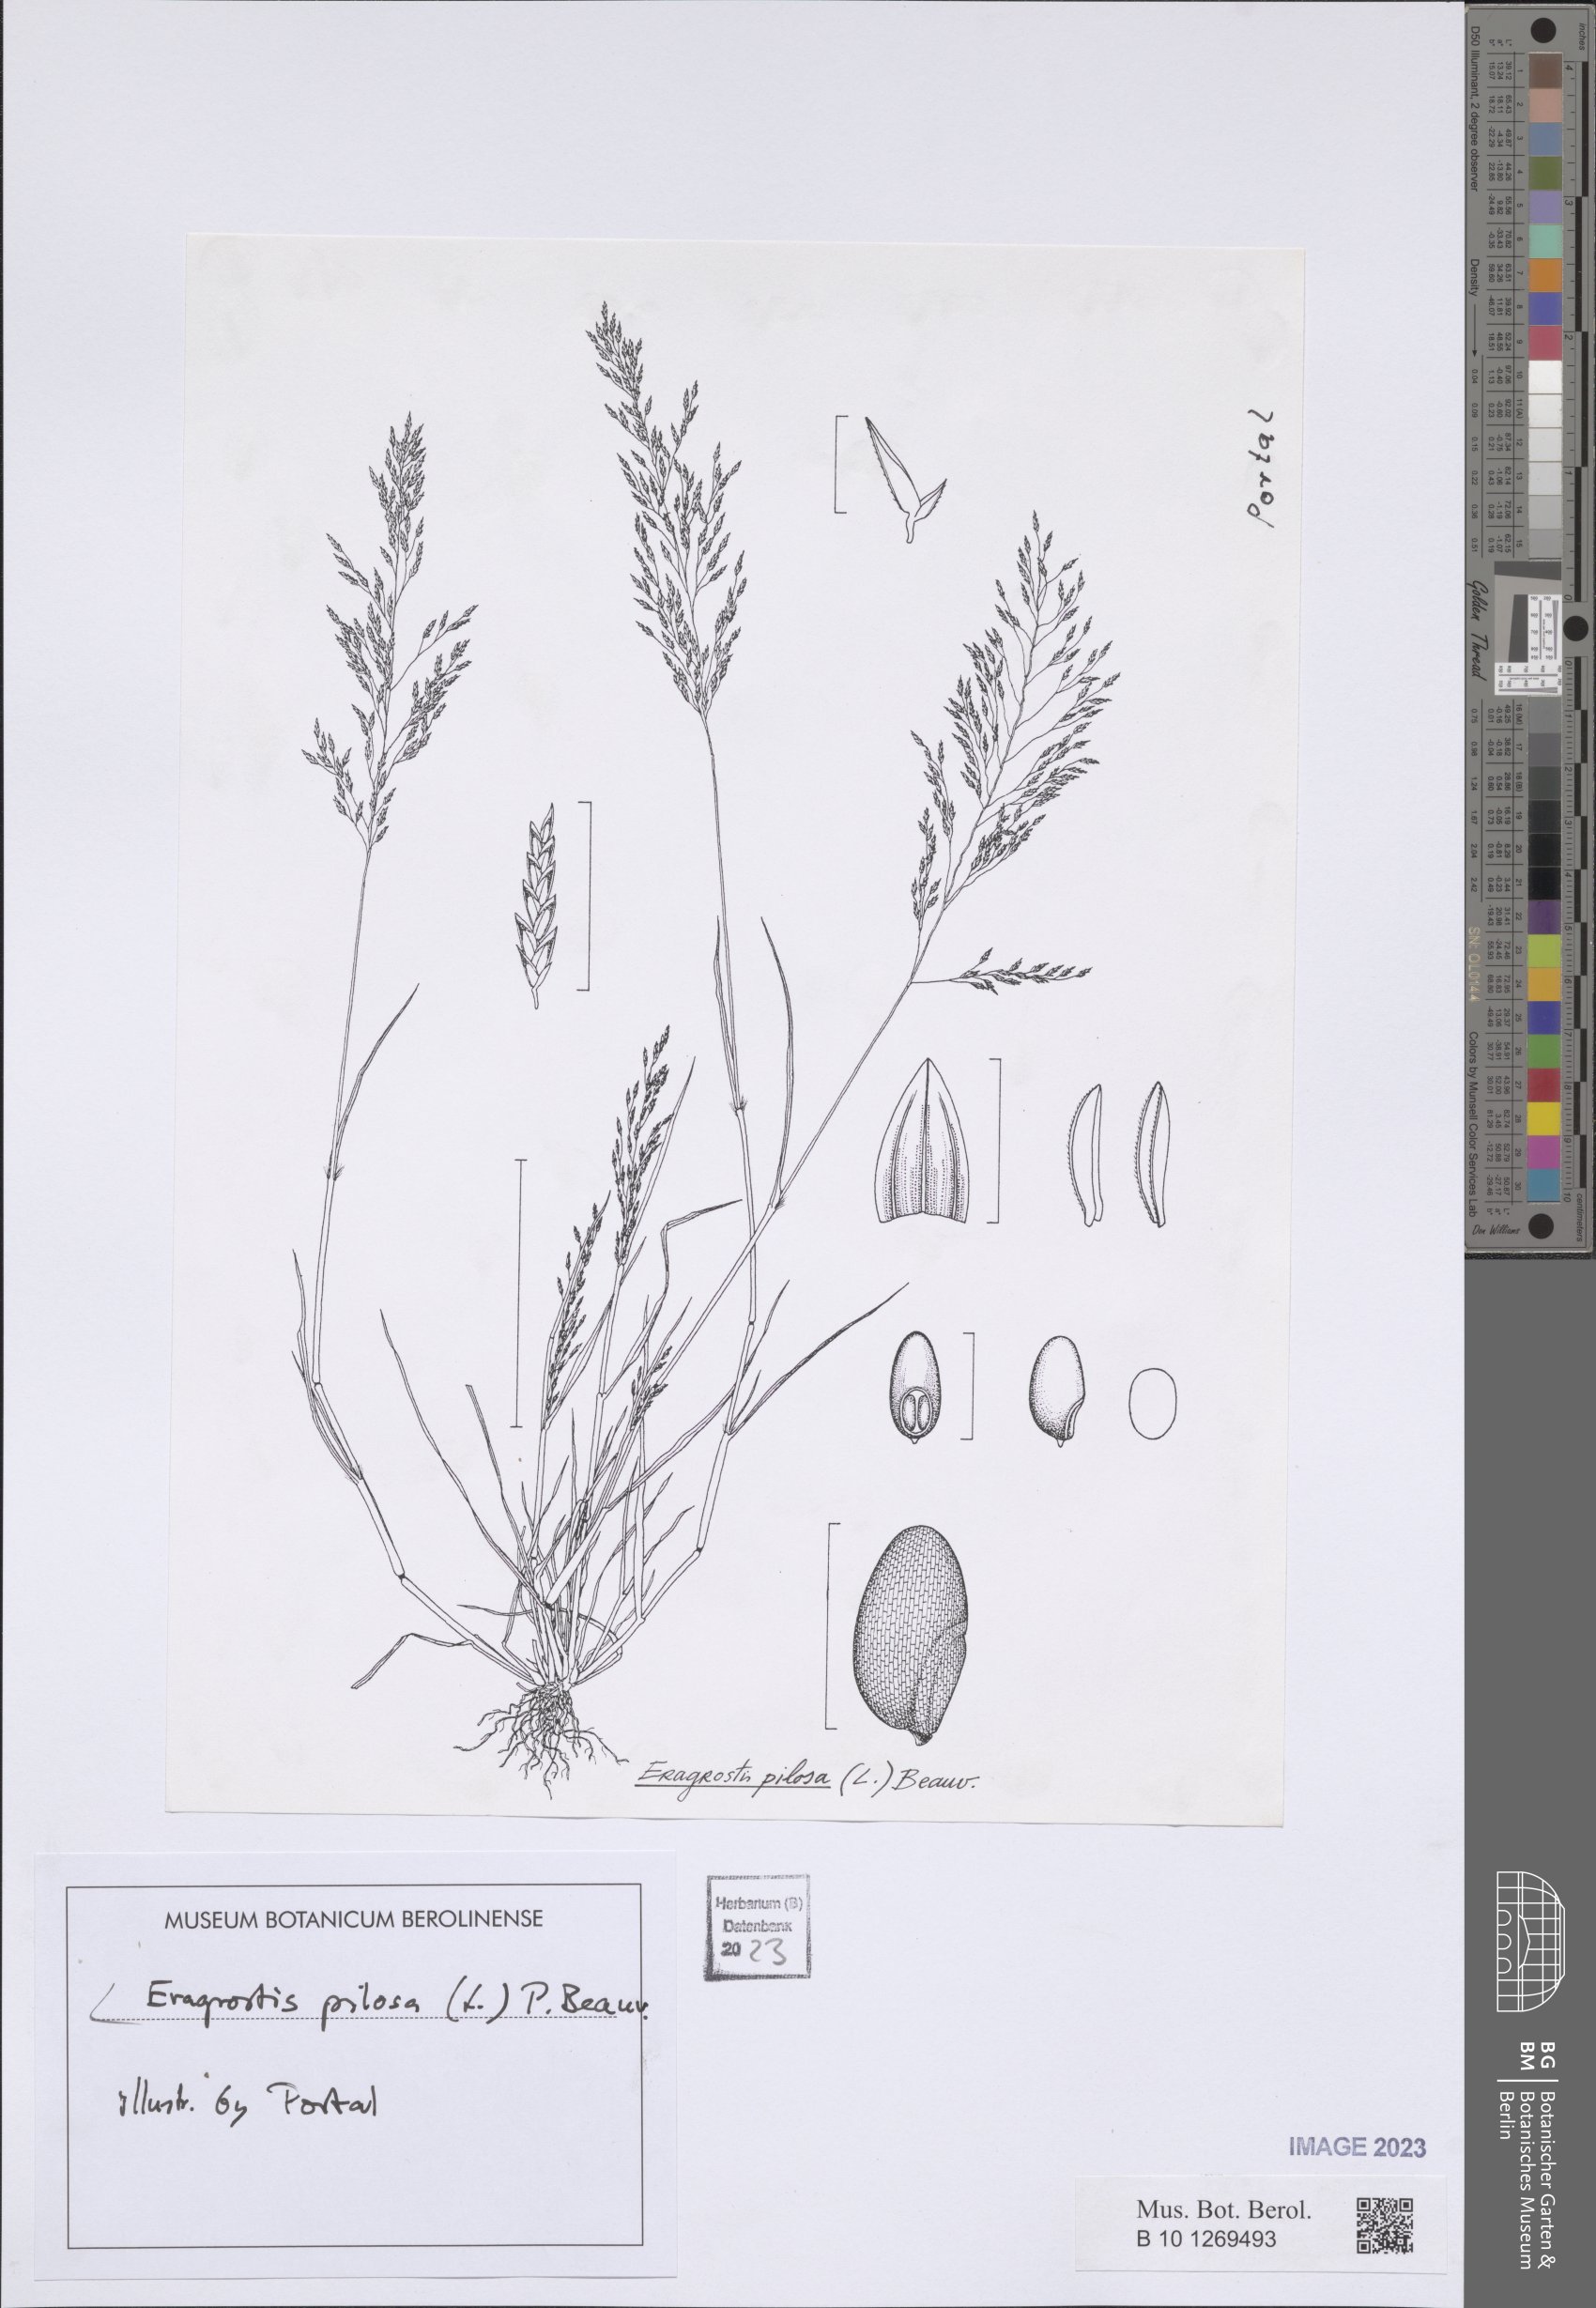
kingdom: Plantae
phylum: Tracheophyta
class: Liliopsida
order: Poales
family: Poaceae
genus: Eragrostis
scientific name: Eragrostis pilosa
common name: Indian lovegrass
